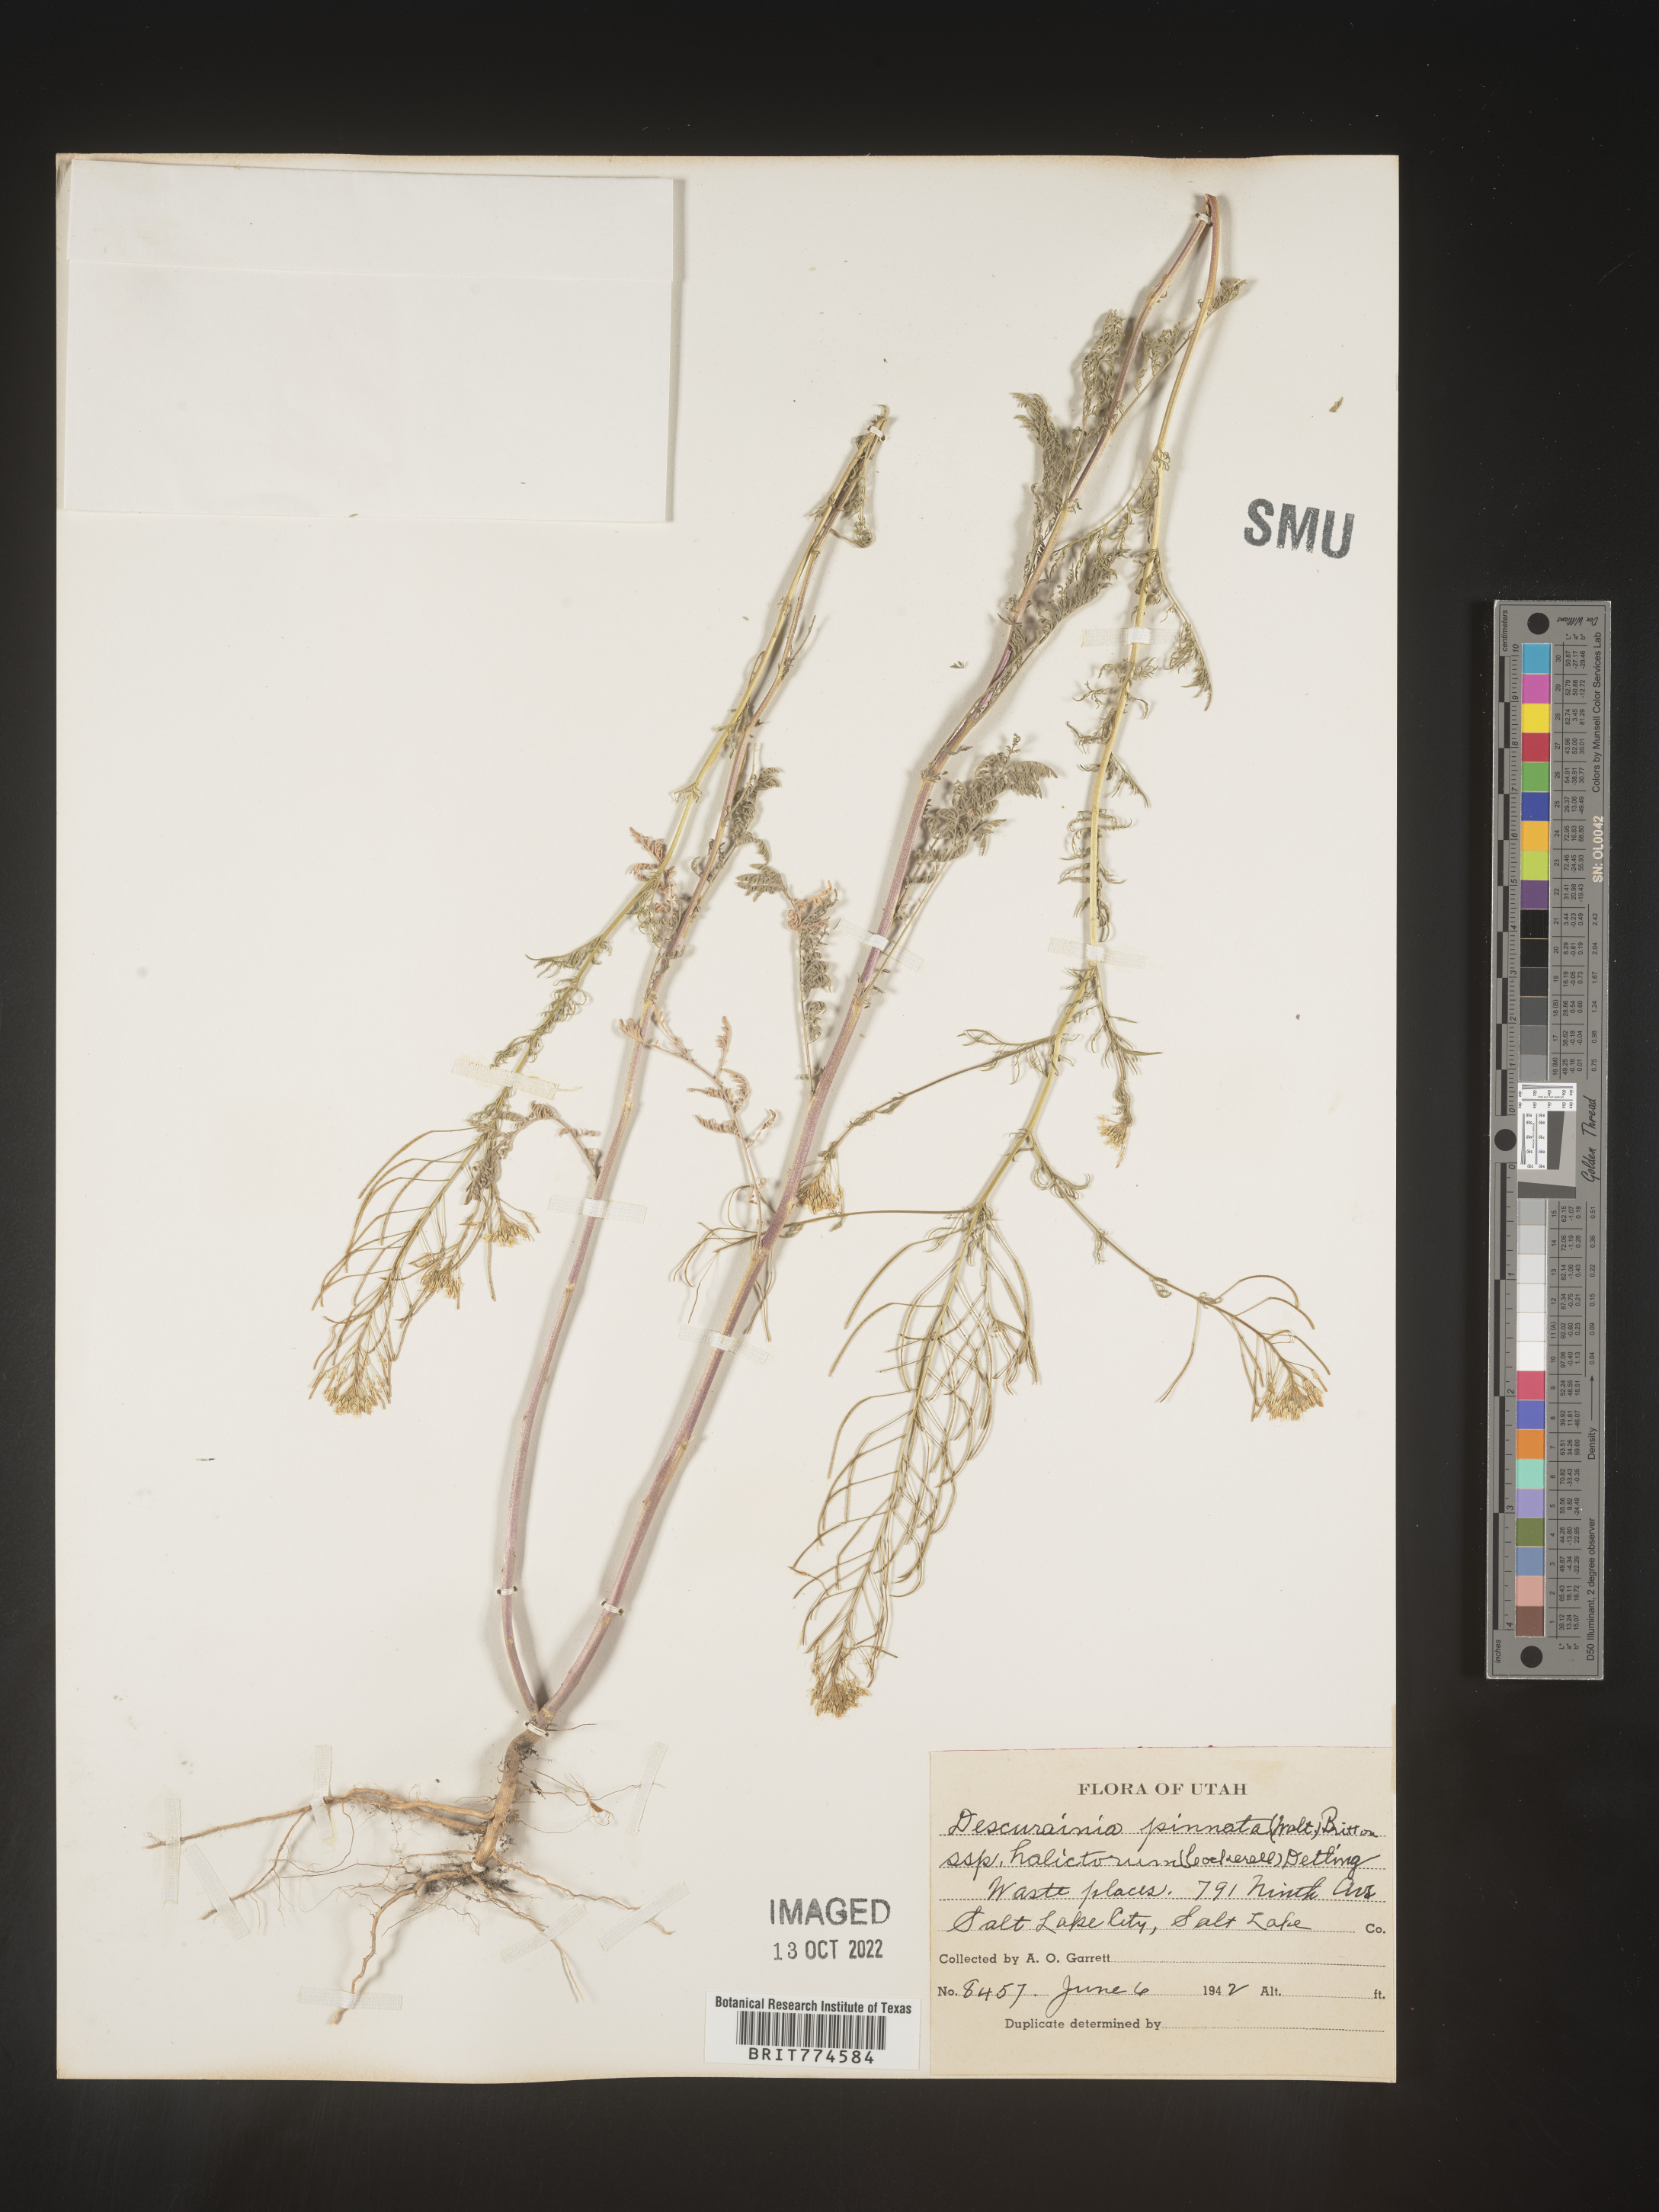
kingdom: Plantae
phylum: Tracheophyta
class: Magnoliopsida
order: Brassicales
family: Brassicaceae
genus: Descurainia
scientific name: Descurainia pinnata
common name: Western tansy mustard
